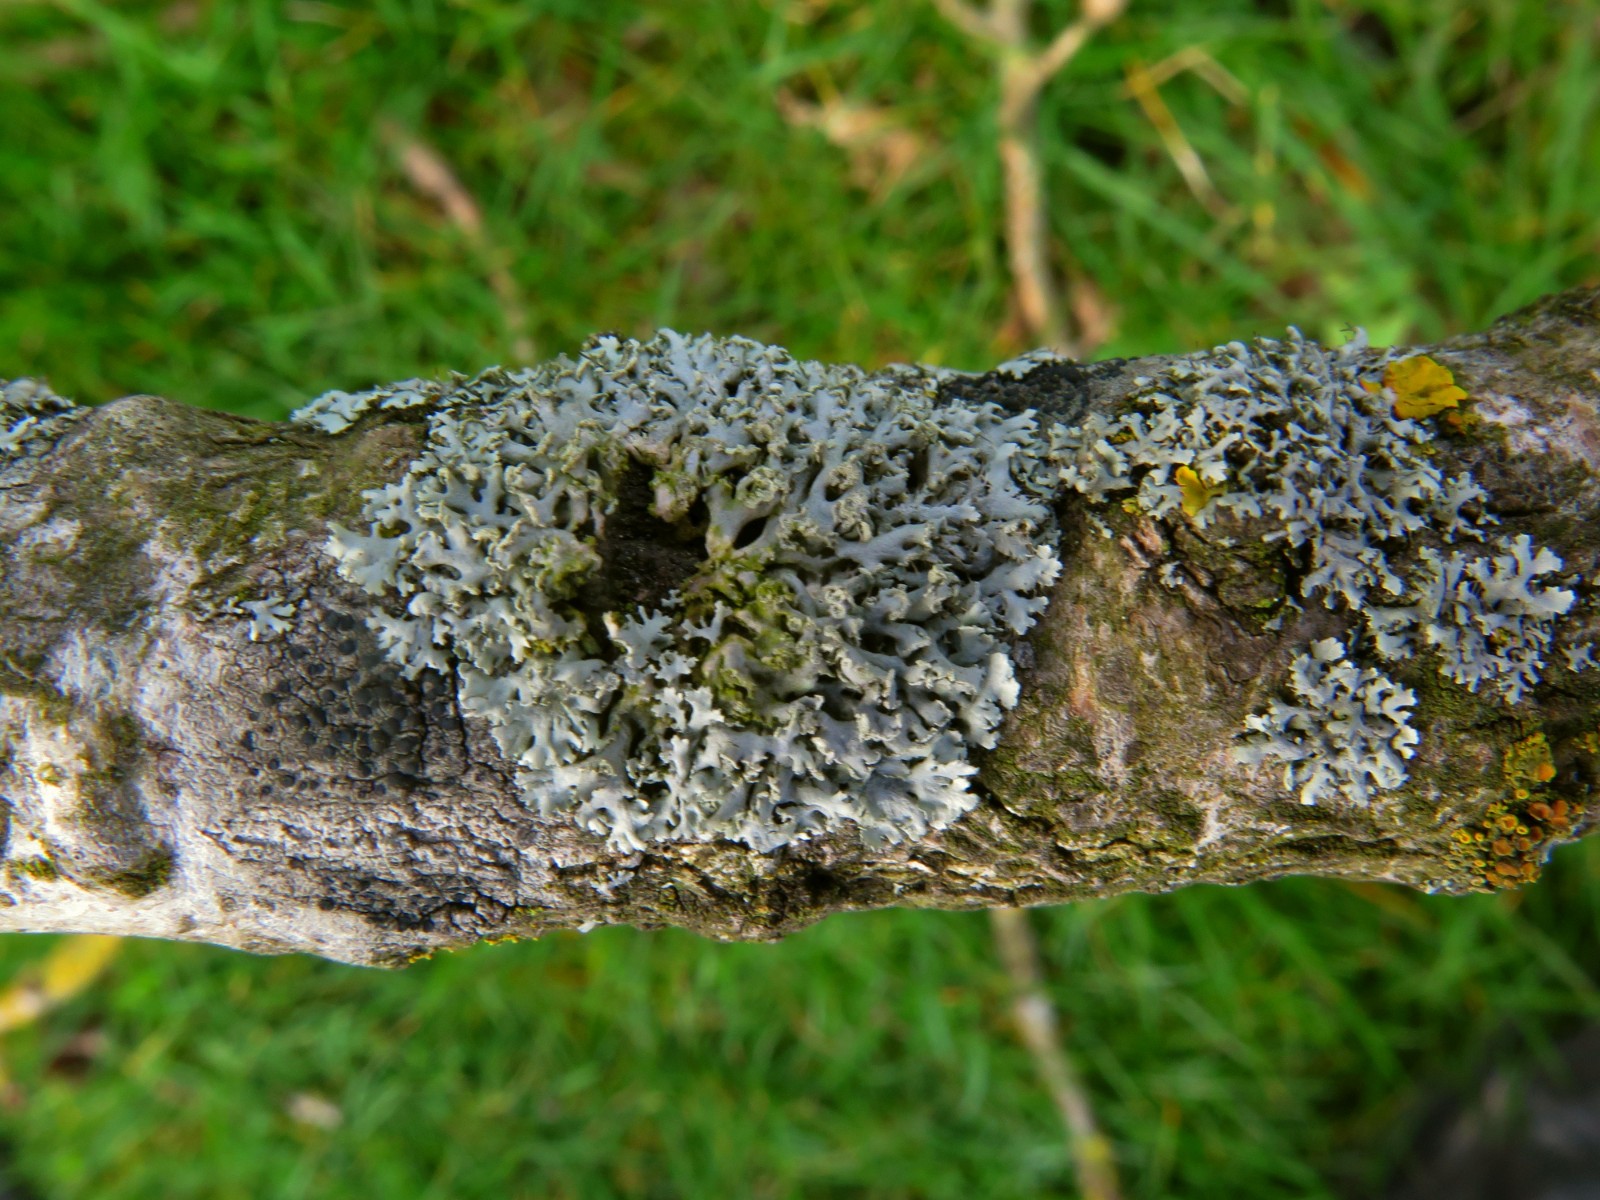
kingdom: Fungi
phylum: Ascomycota
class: Lecanoromycetes
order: Lecanorales
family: Parmeliaceae
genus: Hypogymnia
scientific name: Hypogymnia physodes
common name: almindelig kvistlav
